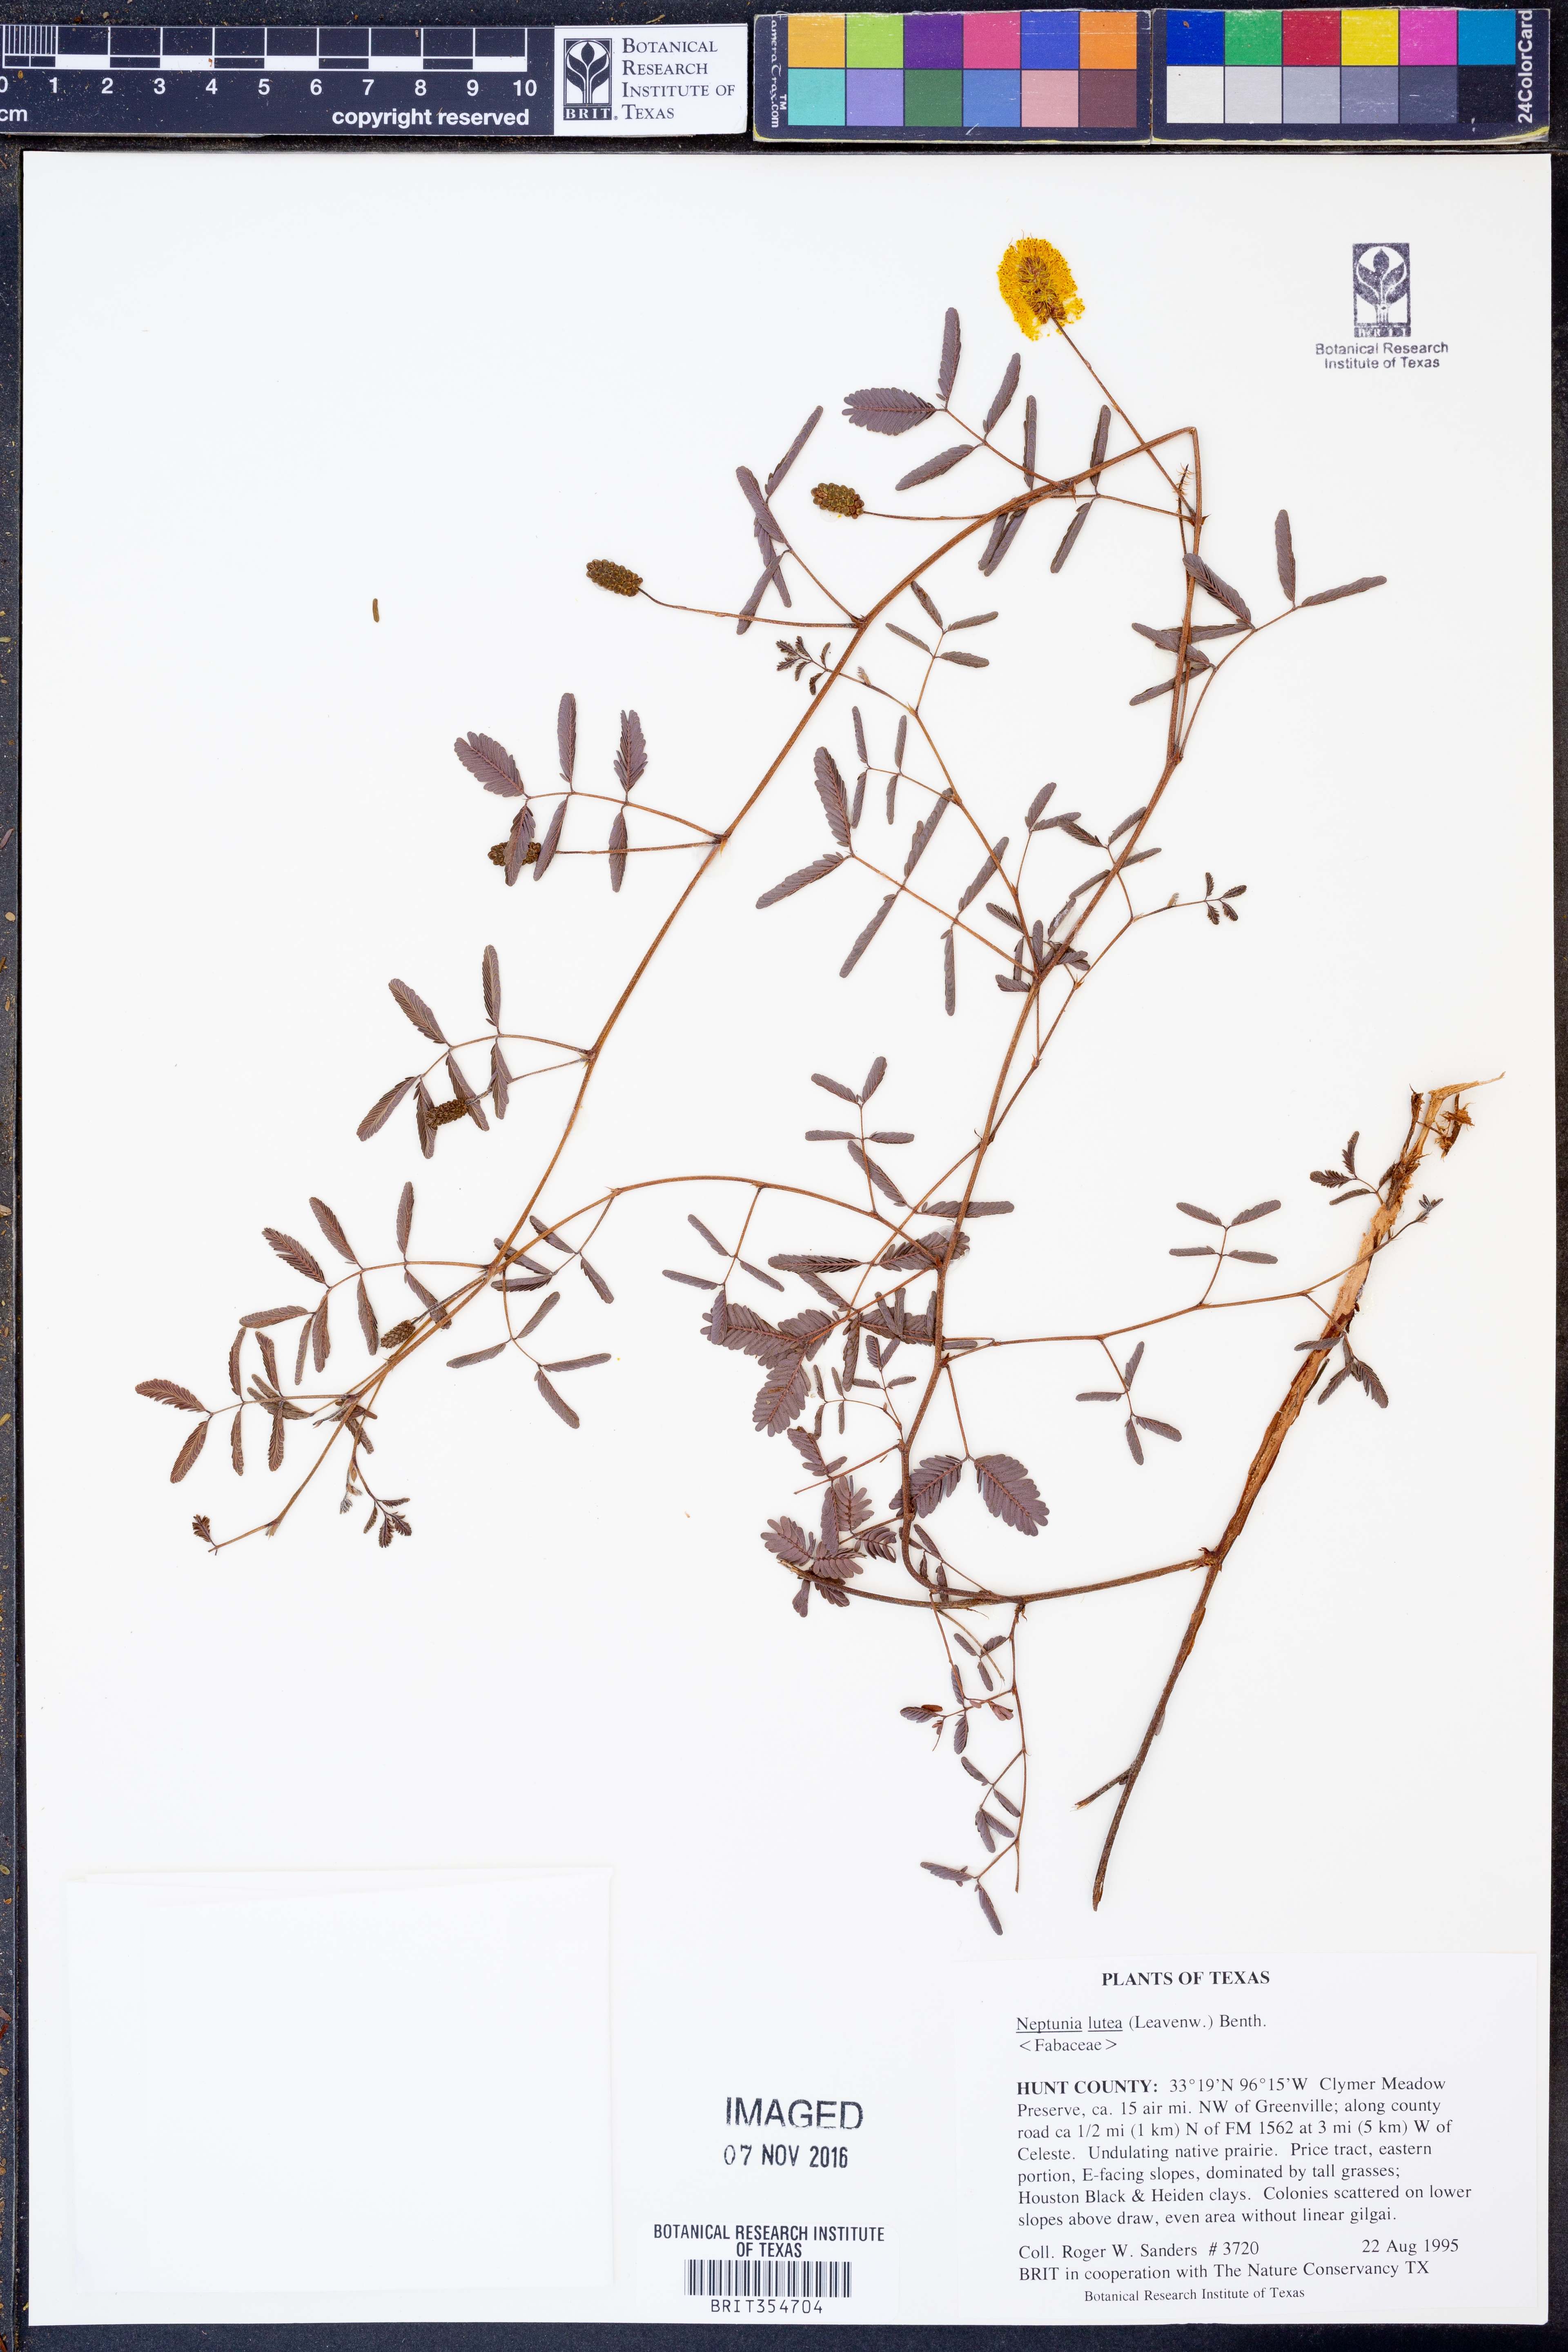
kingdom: Plantae
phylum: Tracheophyta
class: Magnoliopsida
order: Fabales
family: Fabaceae
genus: Neptunia
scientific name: Neptunia lutea
